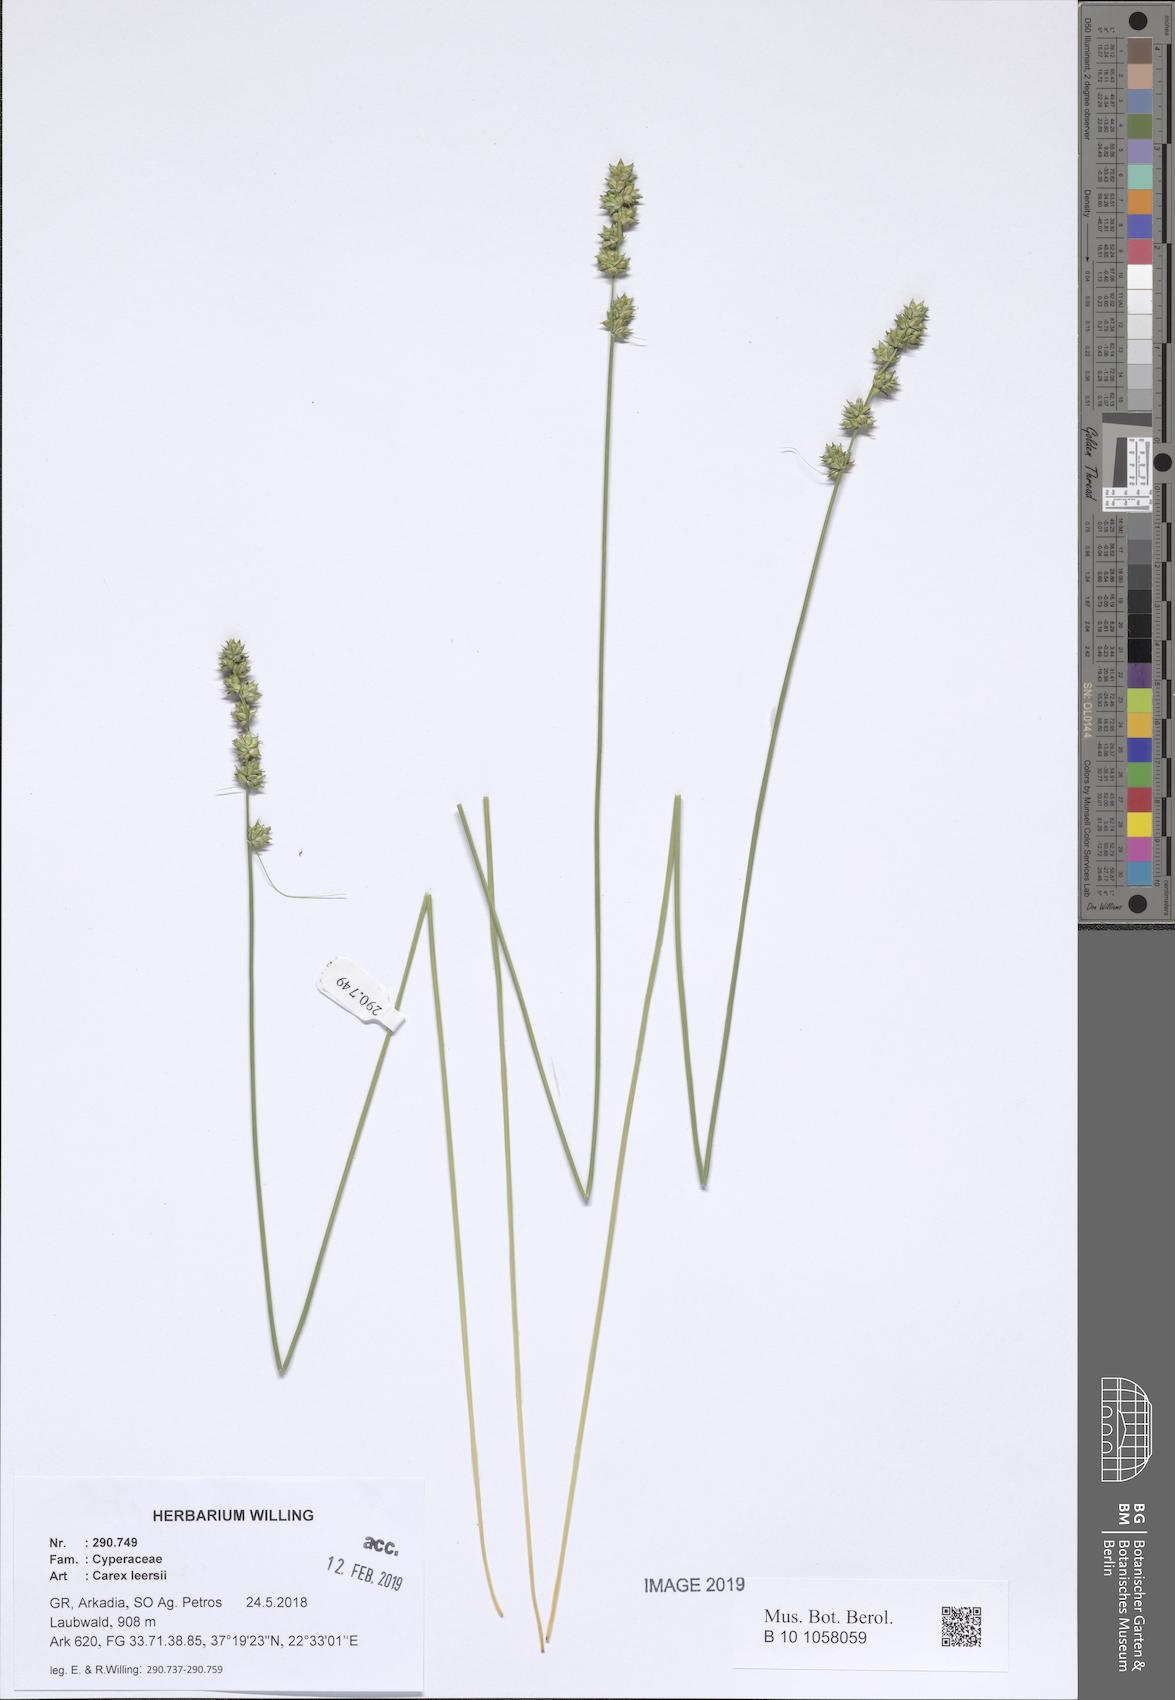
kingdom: Plantae
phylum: Tracheophyta
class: Liliopsida
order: Poales
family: Cyperaceae
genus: Carex
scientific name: Carex leersii
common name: Leers' sedge
